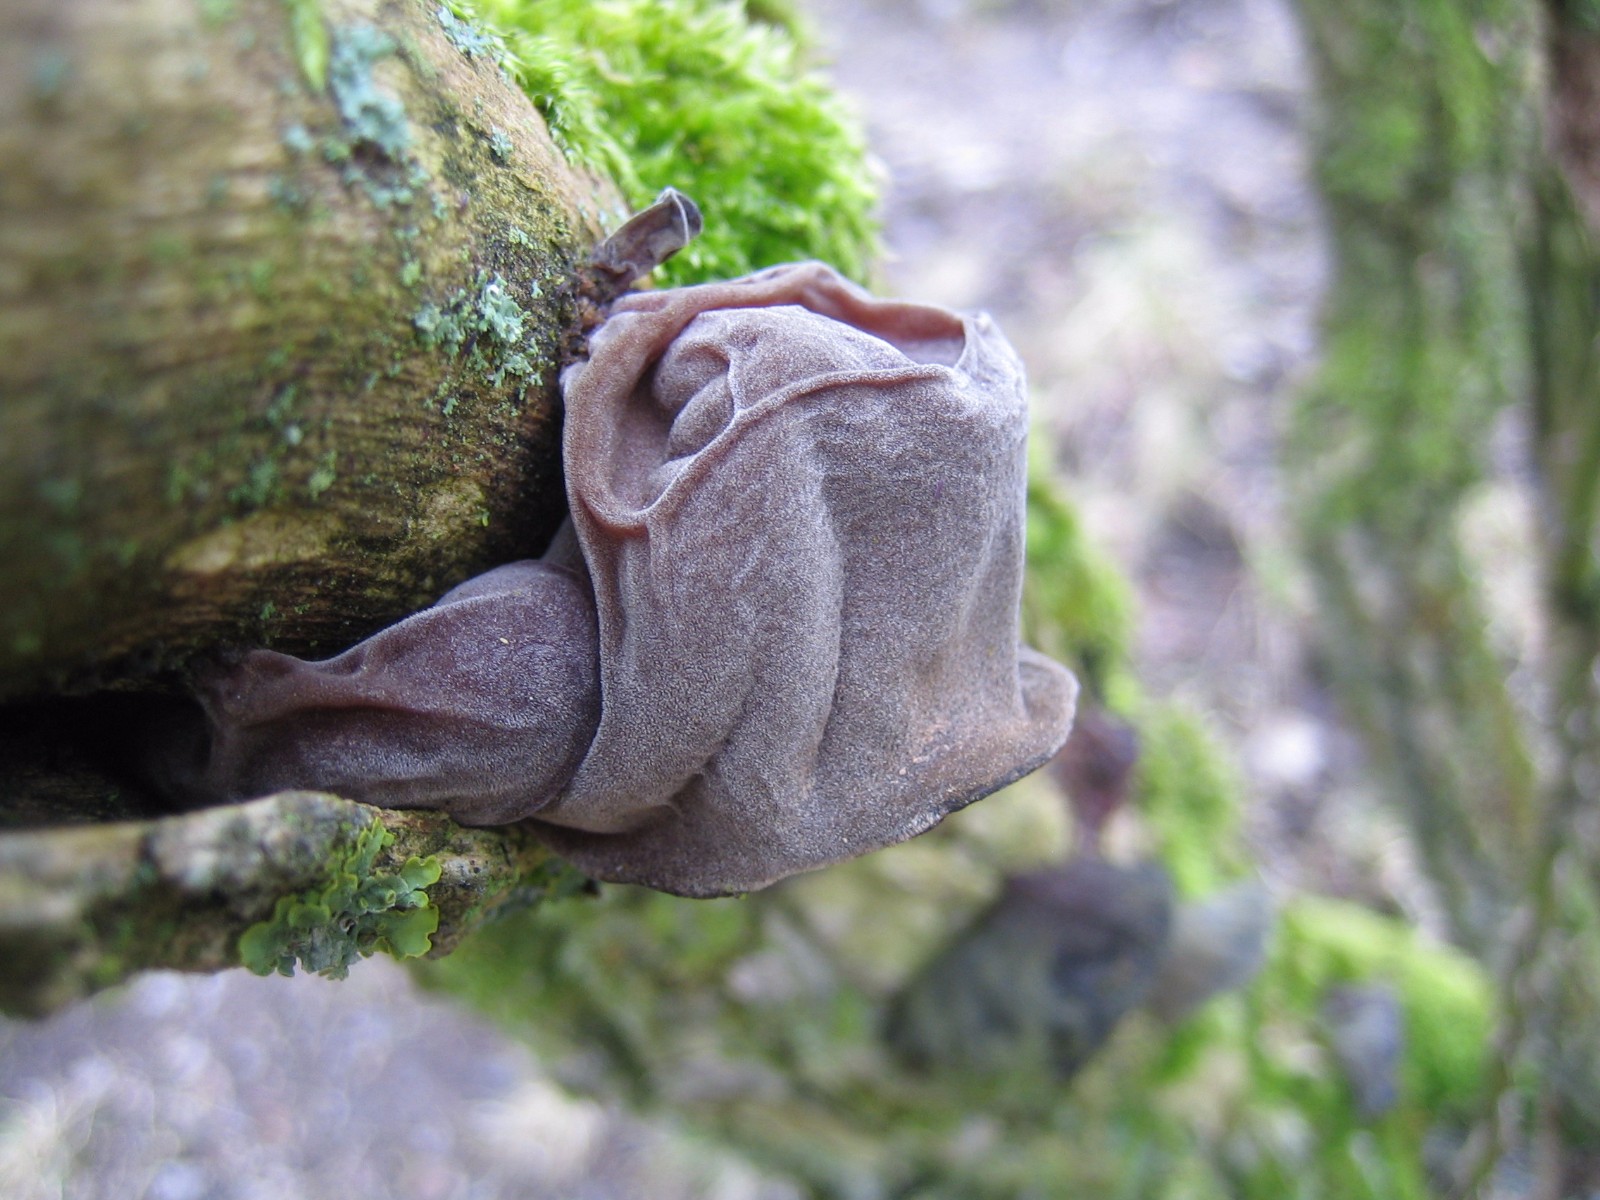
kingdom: Fungi
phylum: Basidiomycota
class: Agaricomycetes
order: Auriculariales
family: Auriculariaceae
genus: Auricularia
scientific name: Auricularia auricula-judae
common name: almindelig judasøre
